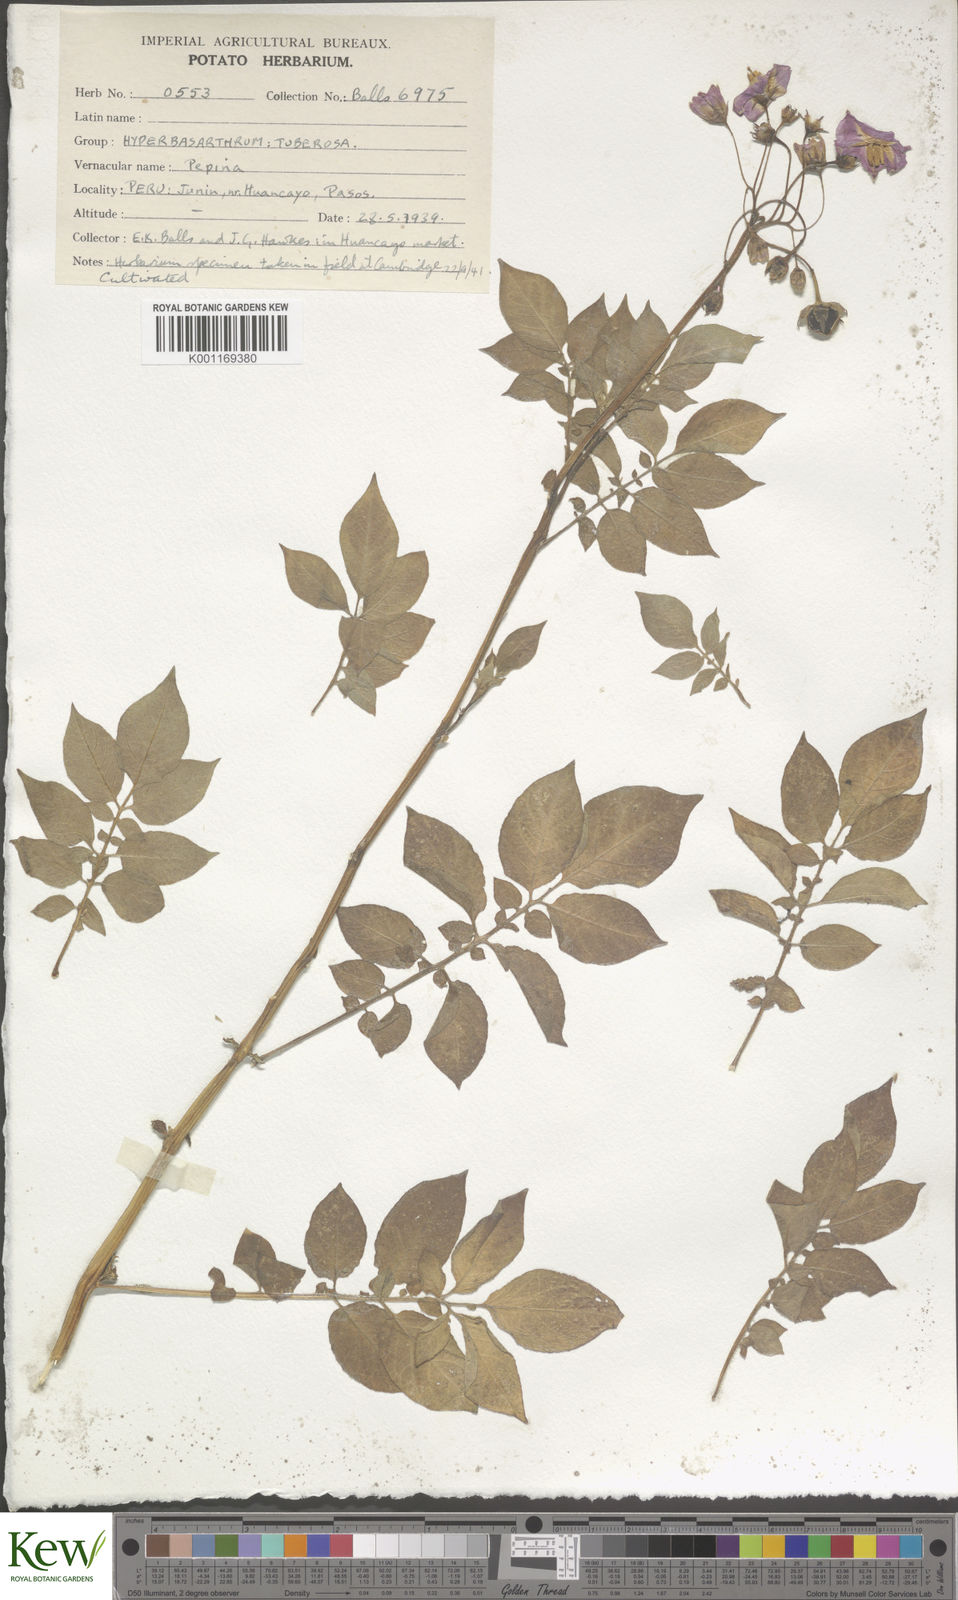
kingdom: Plantae
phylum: Tracheophyta
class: Magnoliopsida
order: Solanales
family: Solanaceae
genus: Solanum
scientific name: Solanum chaucha
